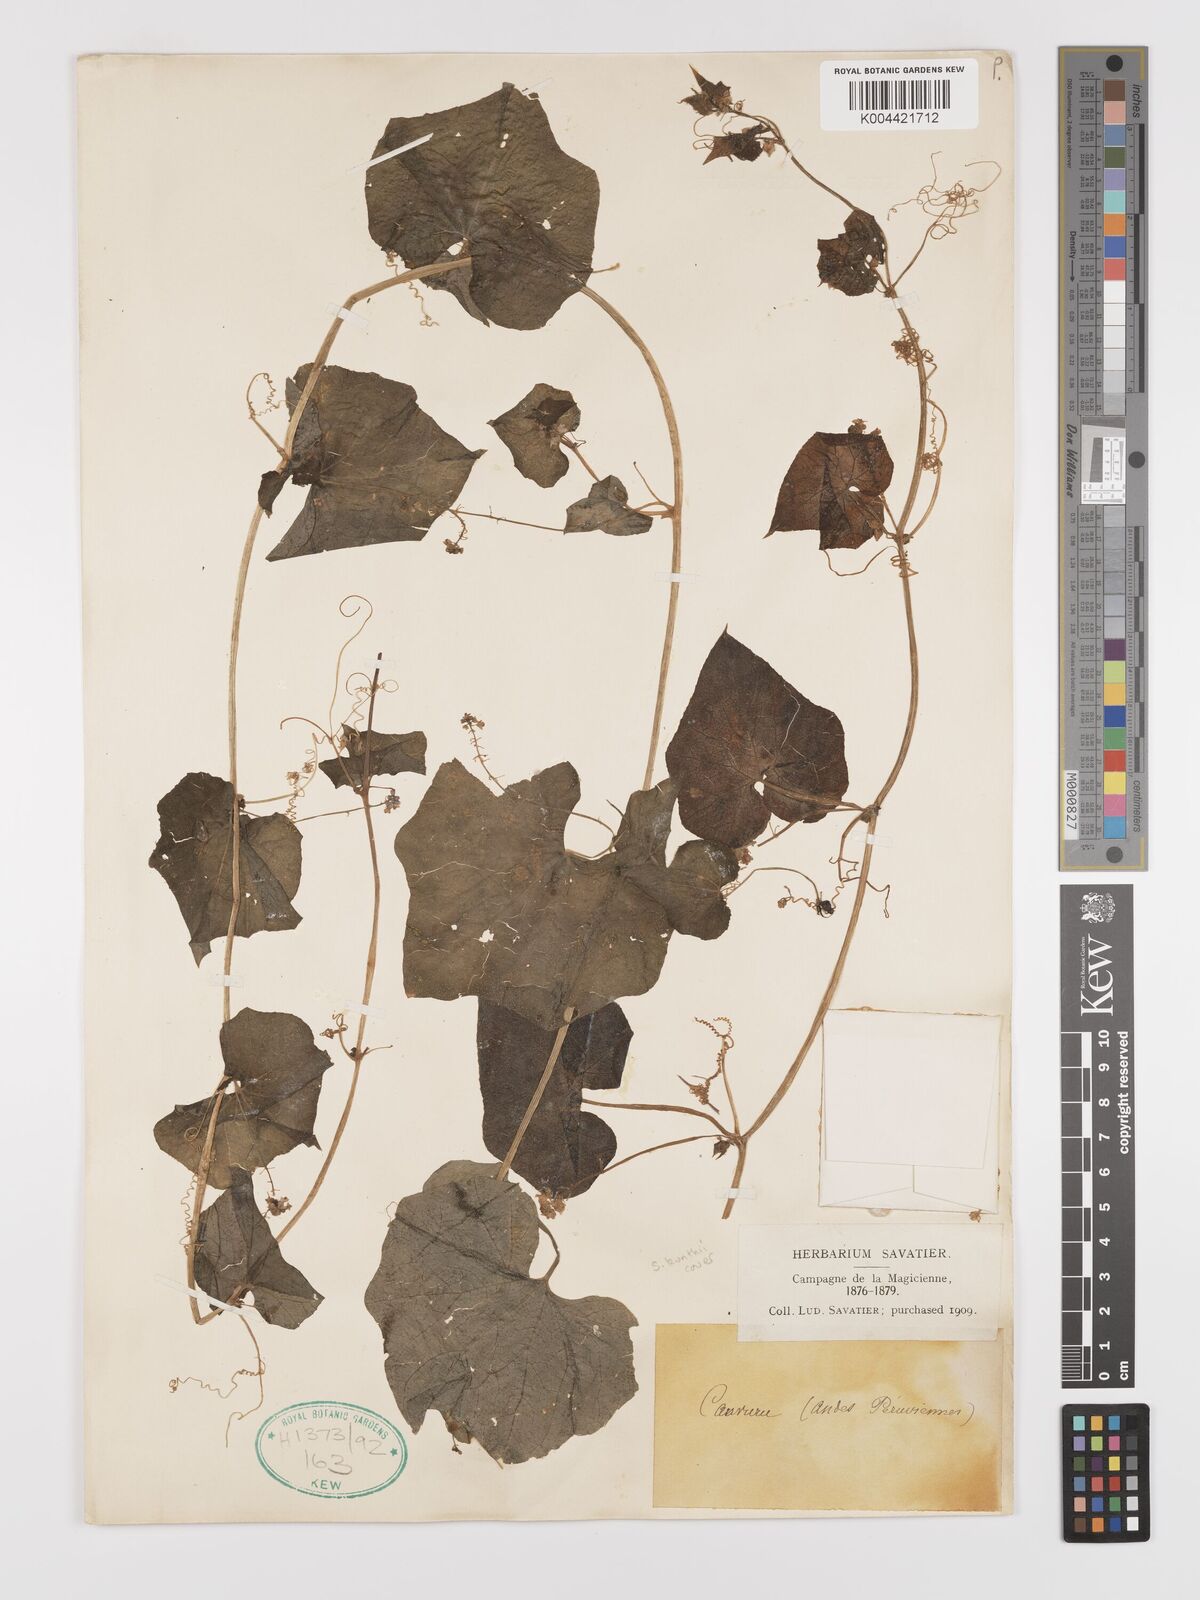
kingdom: Plantae
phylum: Tracheophyta
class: Magnoliopsida
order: Cucurbitales
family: Cucurbitaceae
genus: Sicyos
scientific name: Sicyos kunthii
